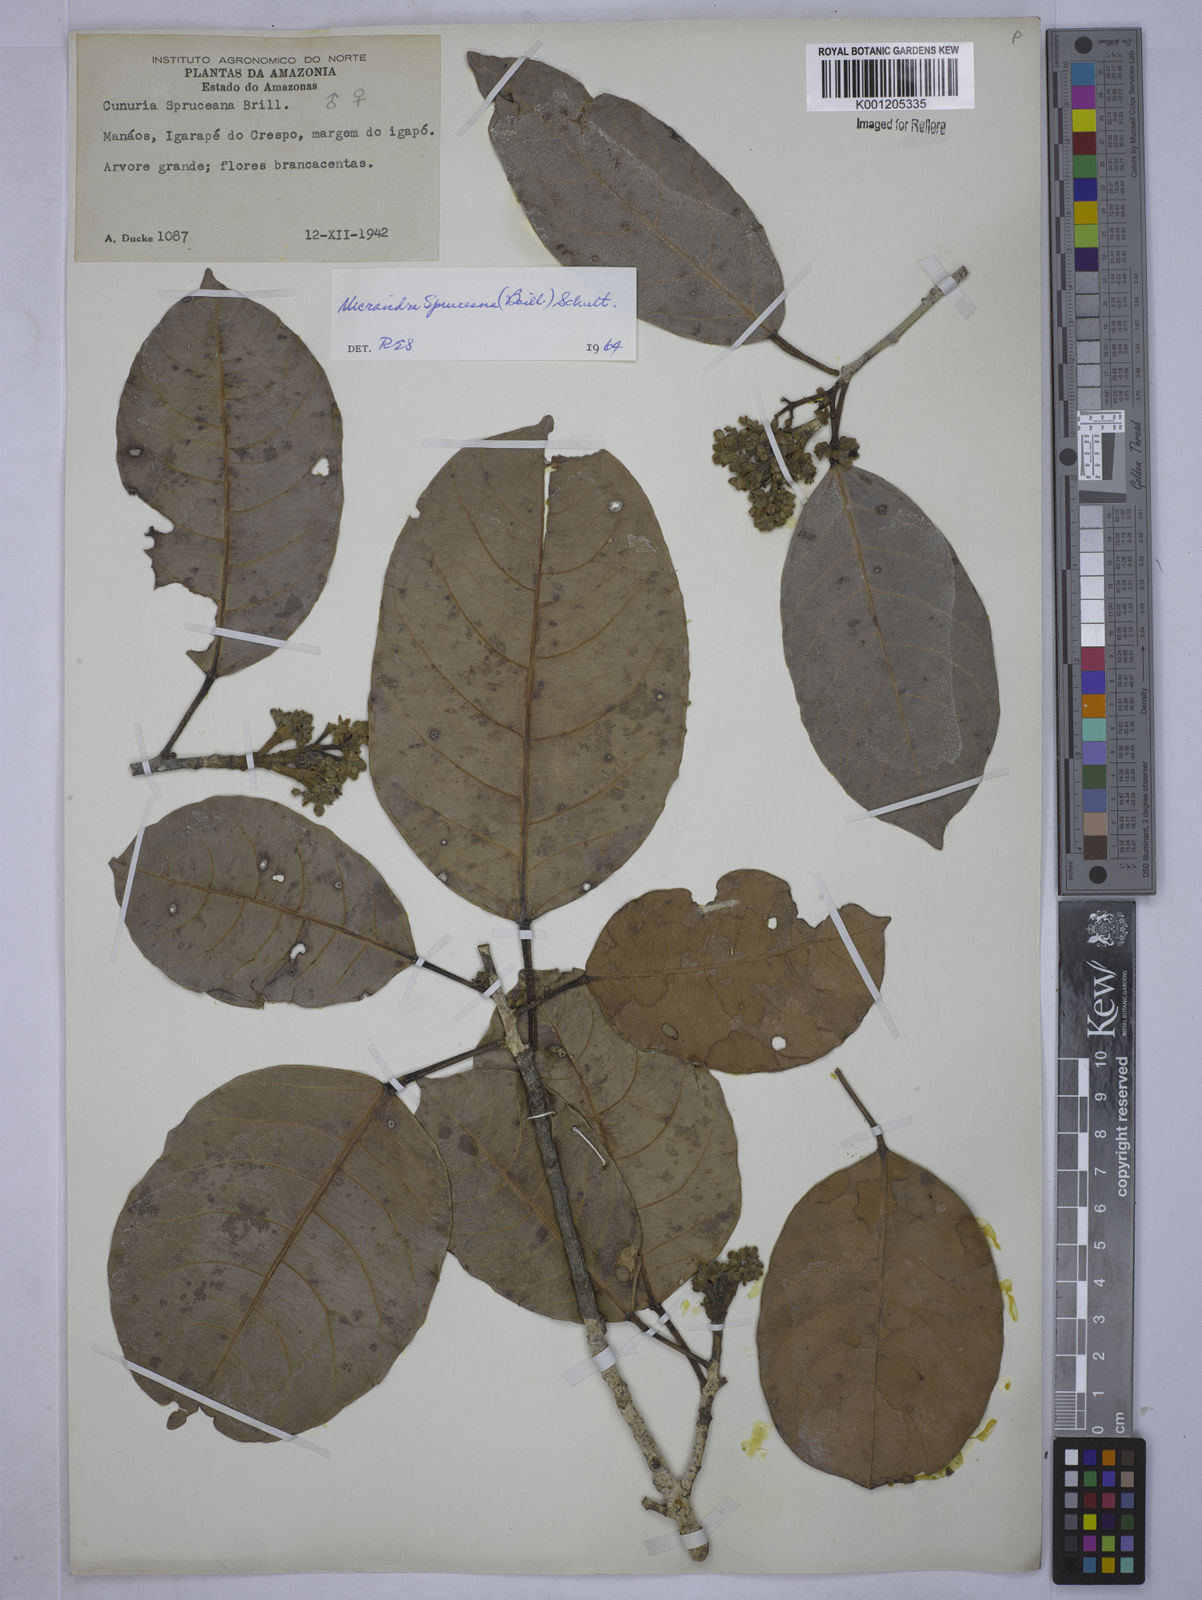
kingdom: Plantae
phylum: Tracheophyta
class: Magnoliopsida
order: Malpighiales
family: Euphorbiaceae
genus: Micrandra
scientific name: Micrandra spruceana
